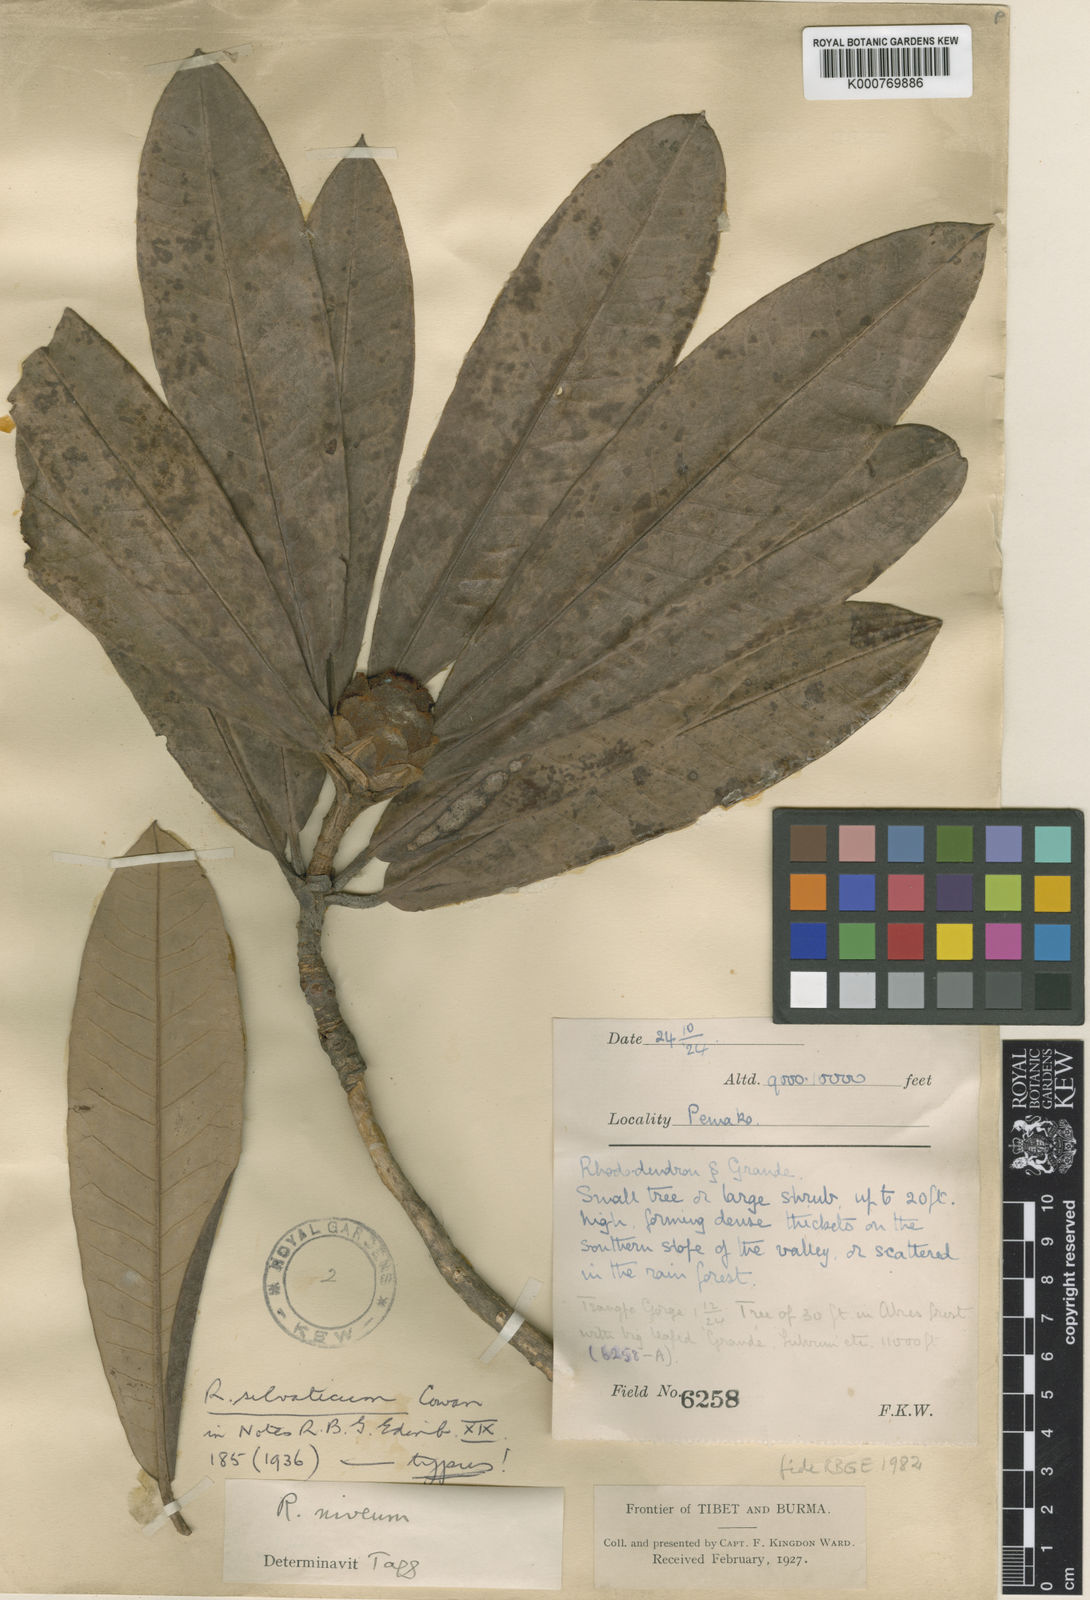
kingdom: Plantae
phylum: Tracheophyta
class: Magnoliopsida
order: Ericales
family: Ericaceae
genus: Rhododendron
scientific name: Rhododendron
